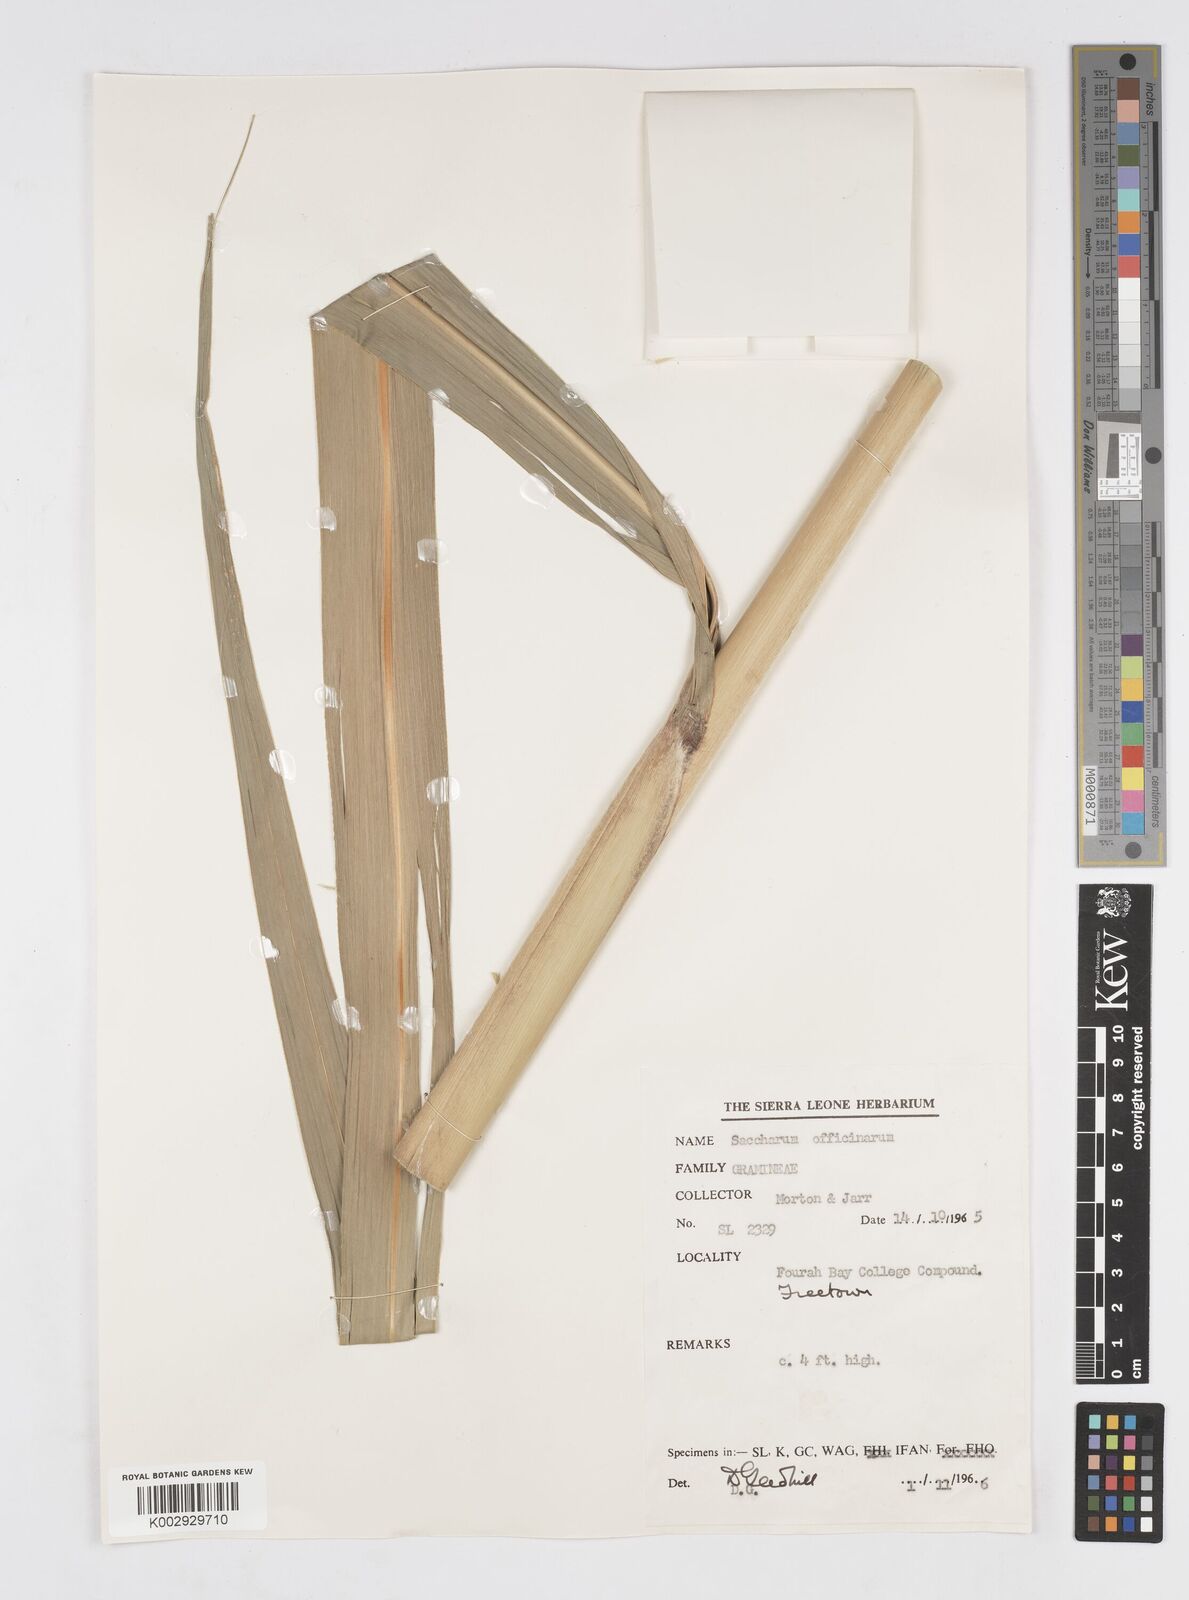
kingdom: Plantae
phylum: Tracheophyta
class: Liliopsida
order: Poales
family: Poaceae
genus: Saccharum
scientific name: Saccharum officinarum
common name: Sugarcane
